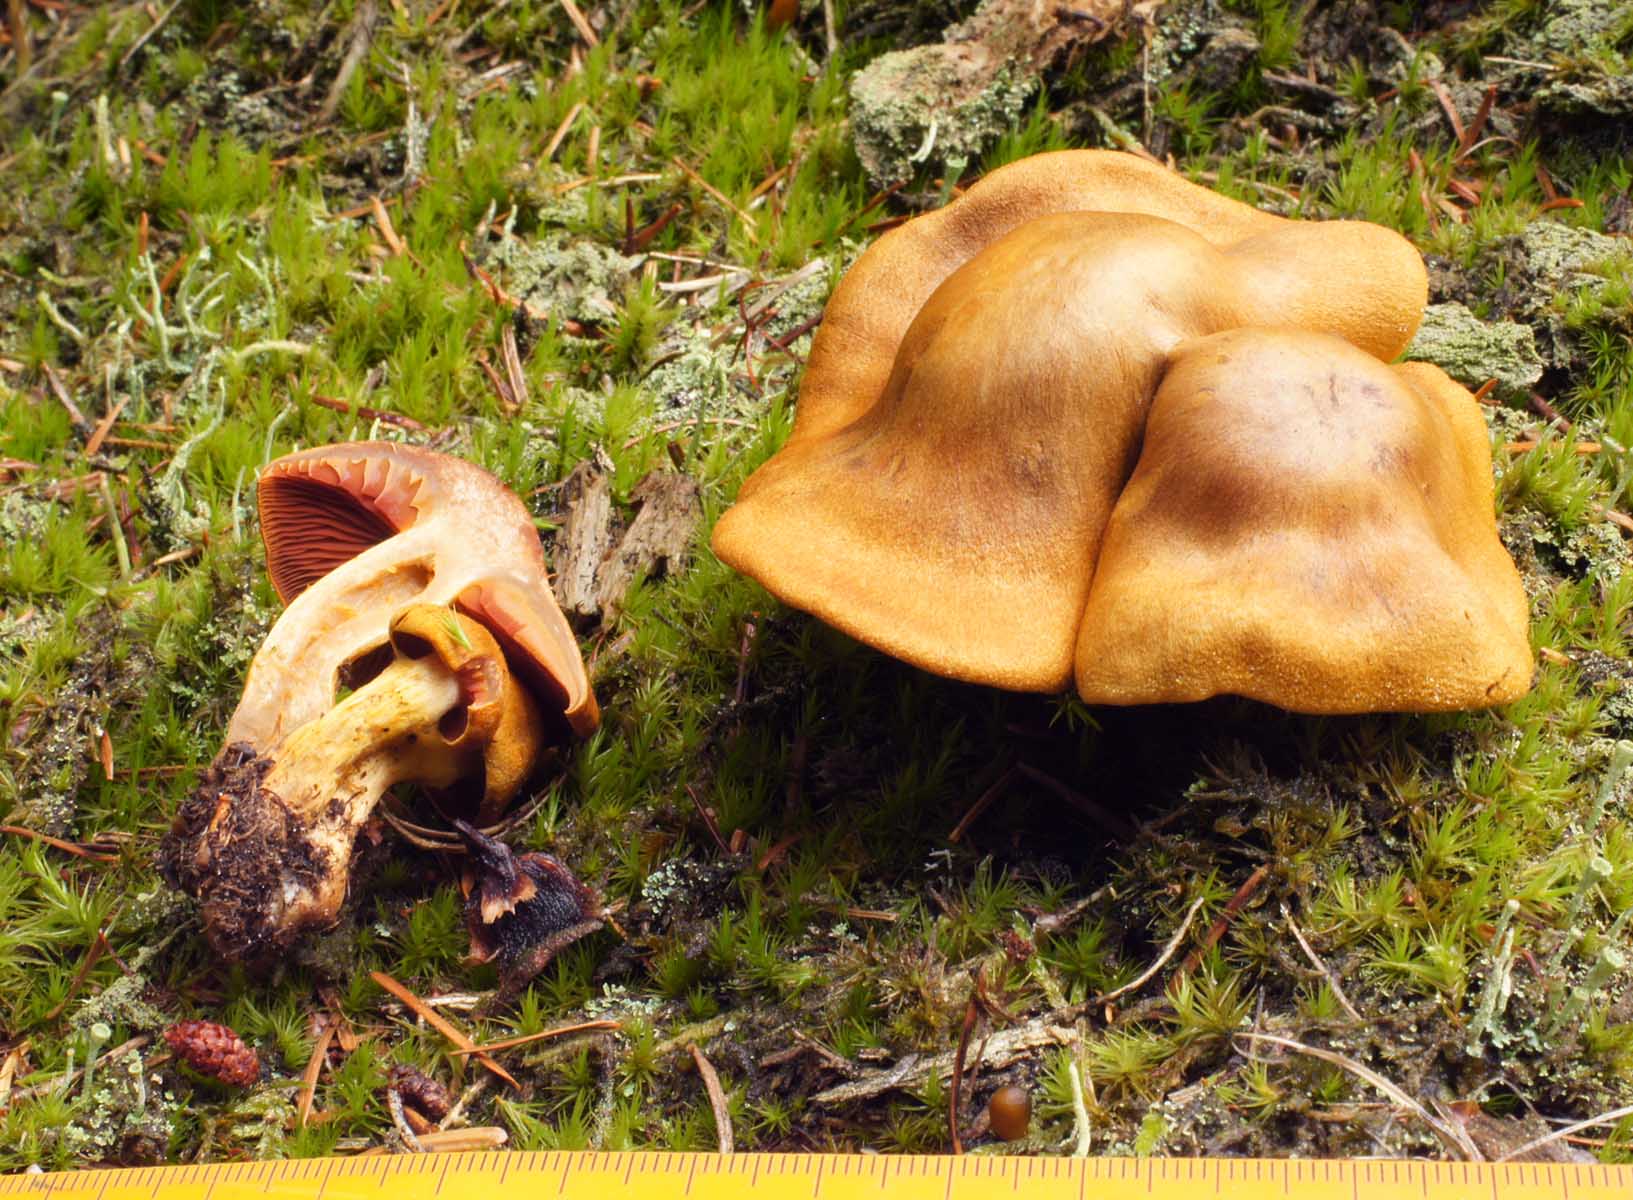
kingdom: Fungi
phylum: Basidiomycota
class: Agaricomycetes
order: Agaricales
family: Cortinariaceae
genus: Cortinarius
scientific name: Cortinarius
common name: cinnoberbladet slørhat
